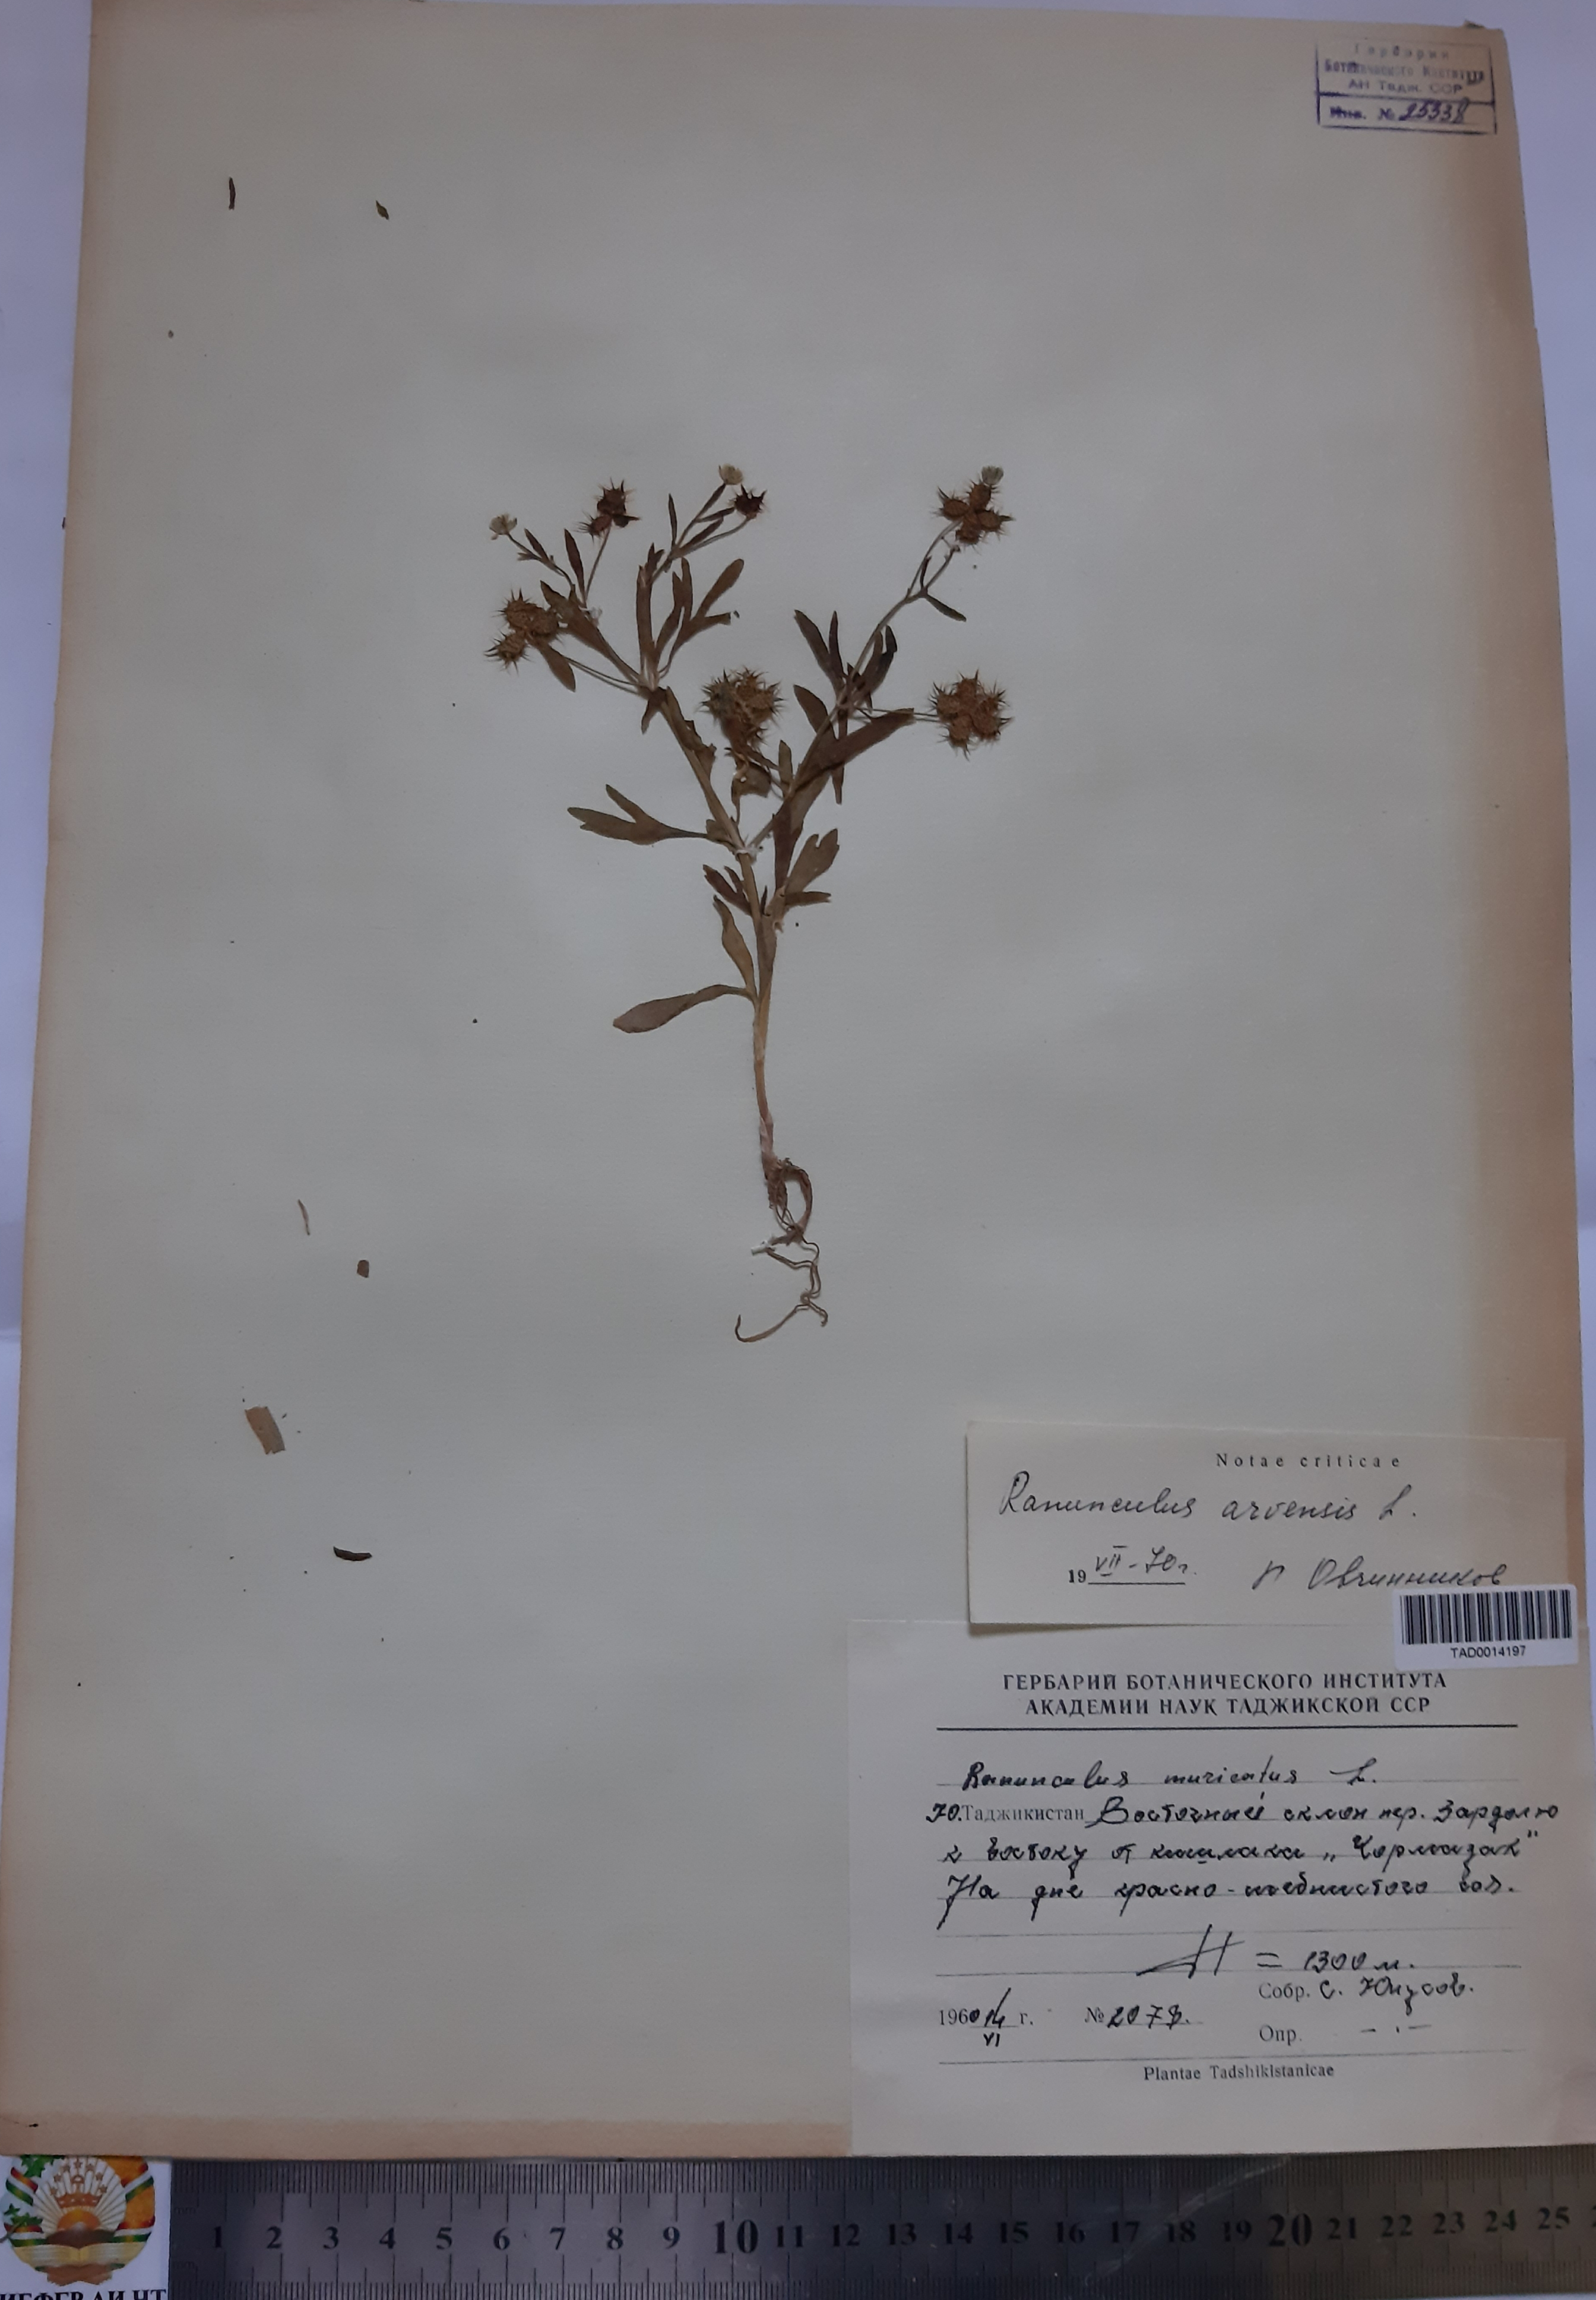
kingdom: Plantae
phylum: Tracheophyta
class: Magnoliopsida
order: Ranunculales
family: Ranunculaceae
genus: Ranunculus
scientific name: Ranunculus muricatus
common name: Rough-fruited buttercup
